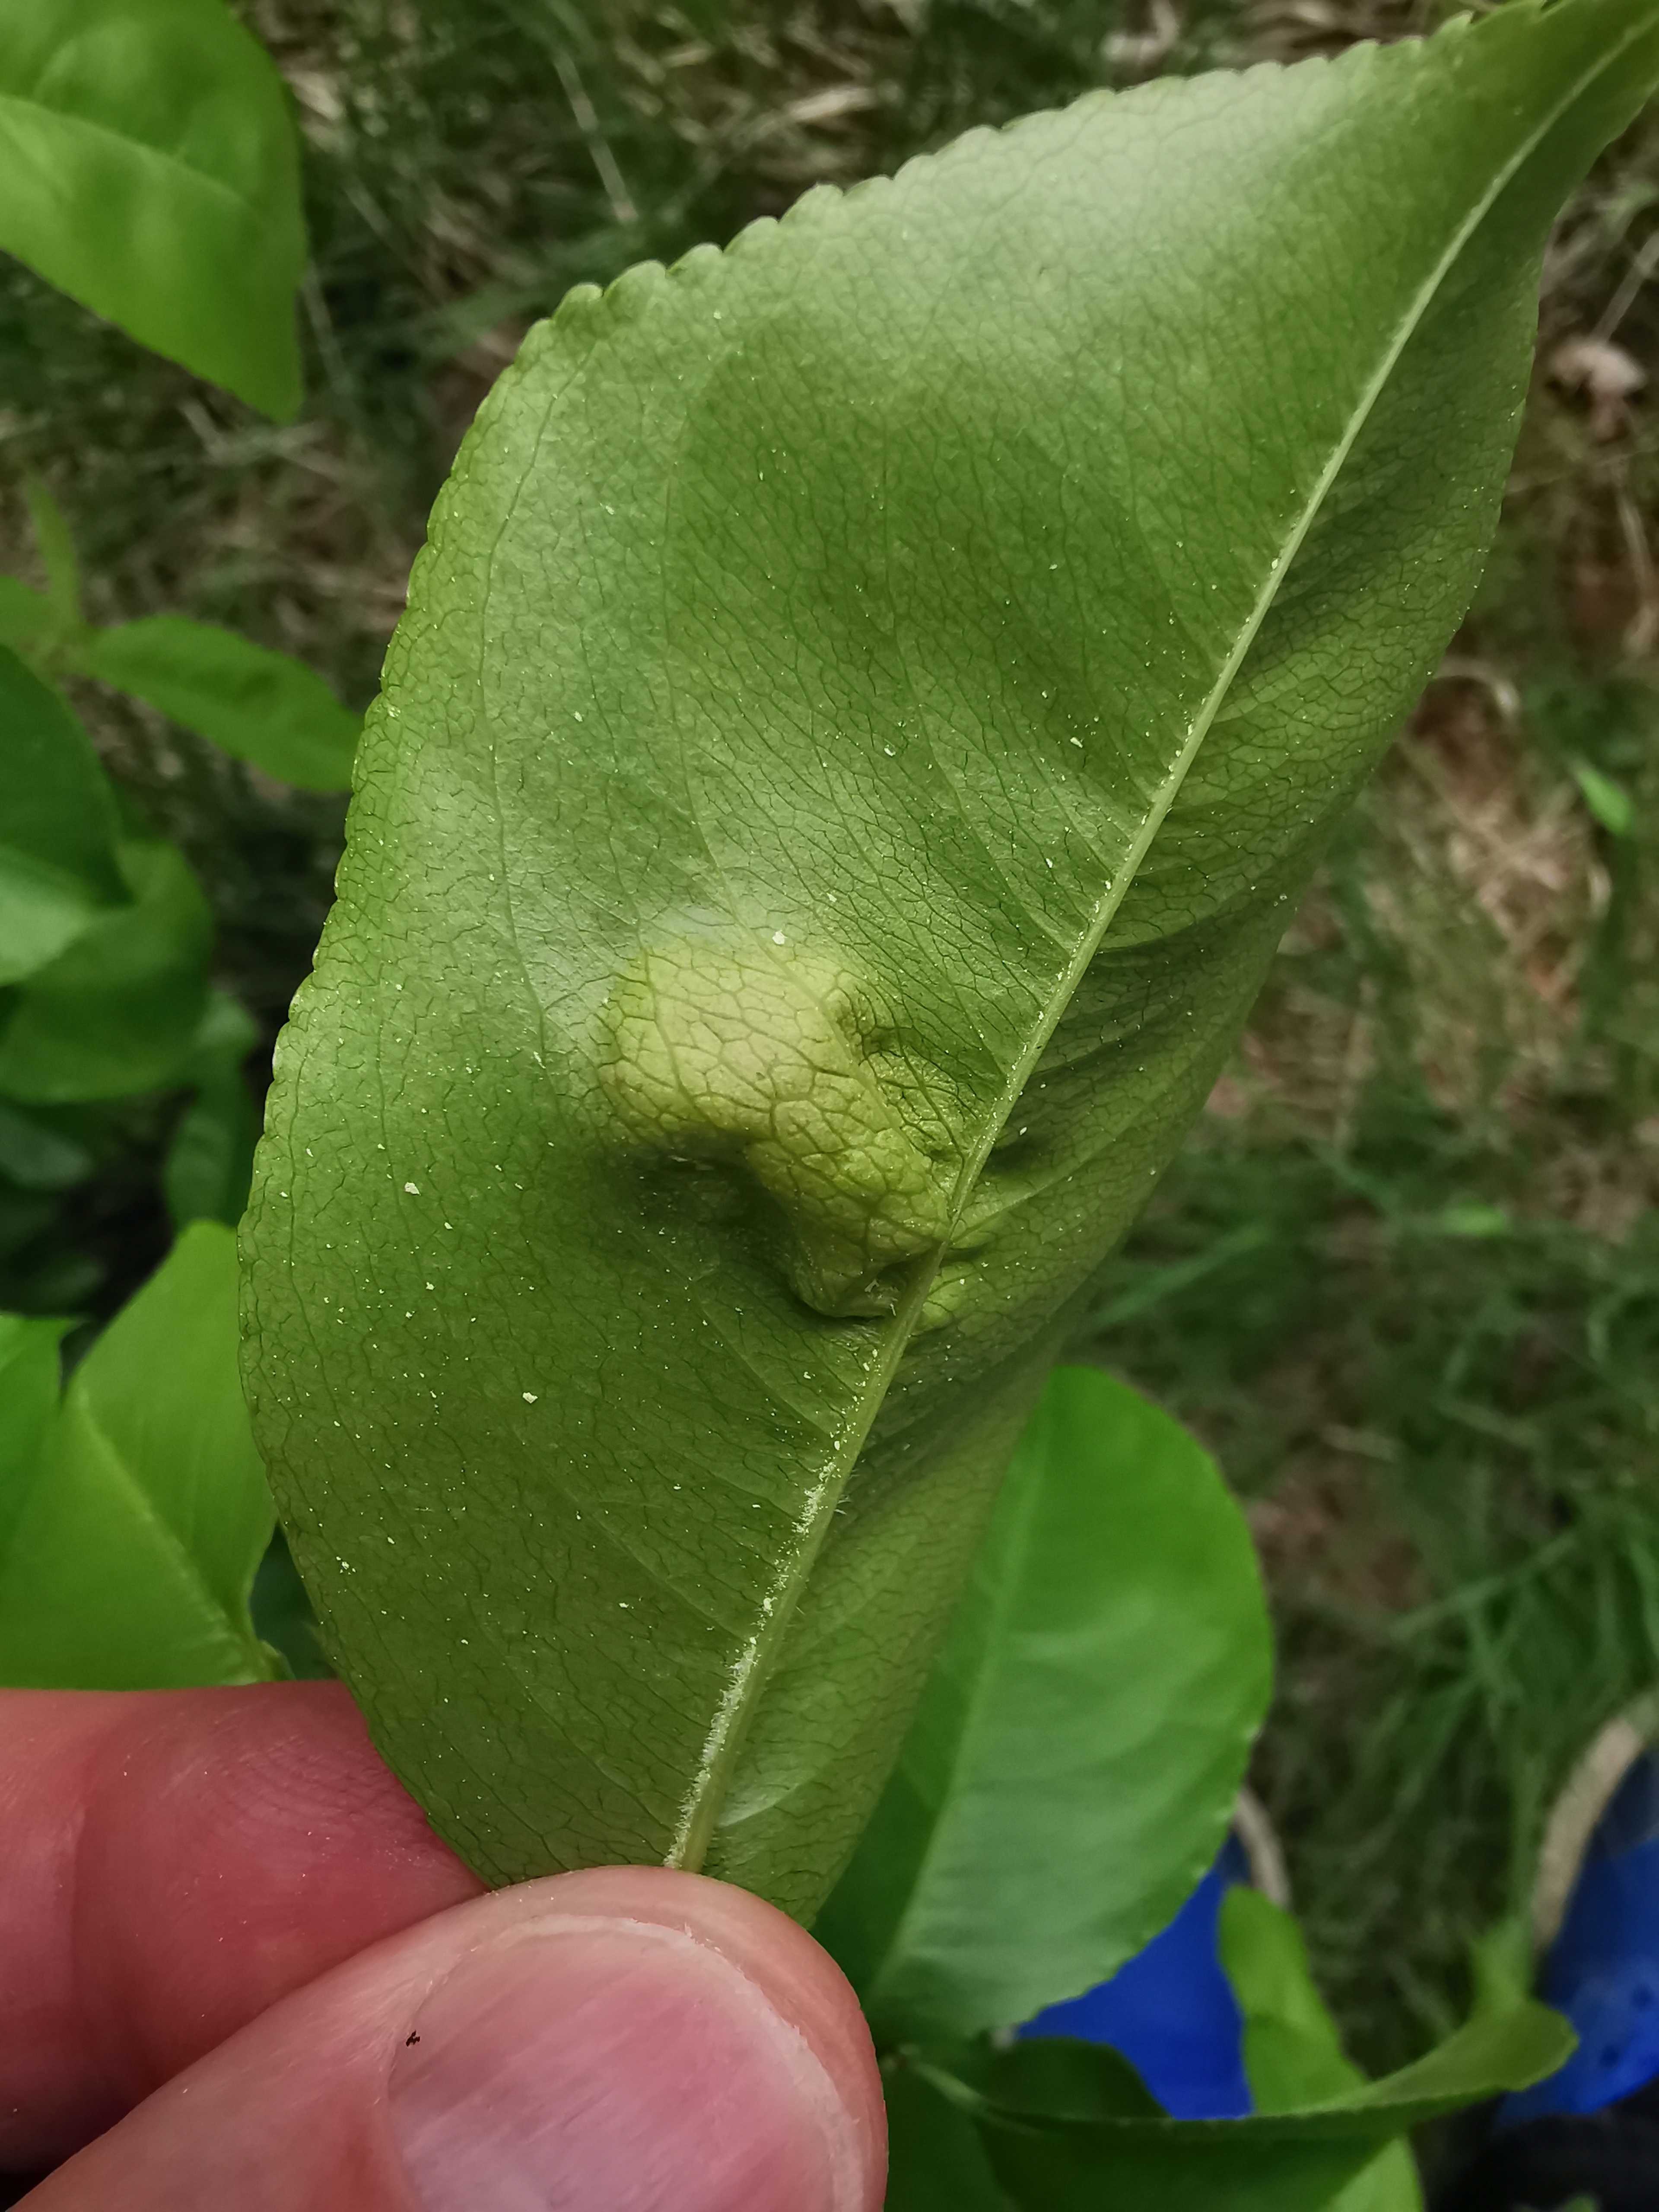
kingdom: Fungi
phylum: Ascomycota
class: Taphrinomycetes
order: Taphrinales
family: Taphrinaceae
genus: Taphrina
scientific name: Taphrina farlowii
